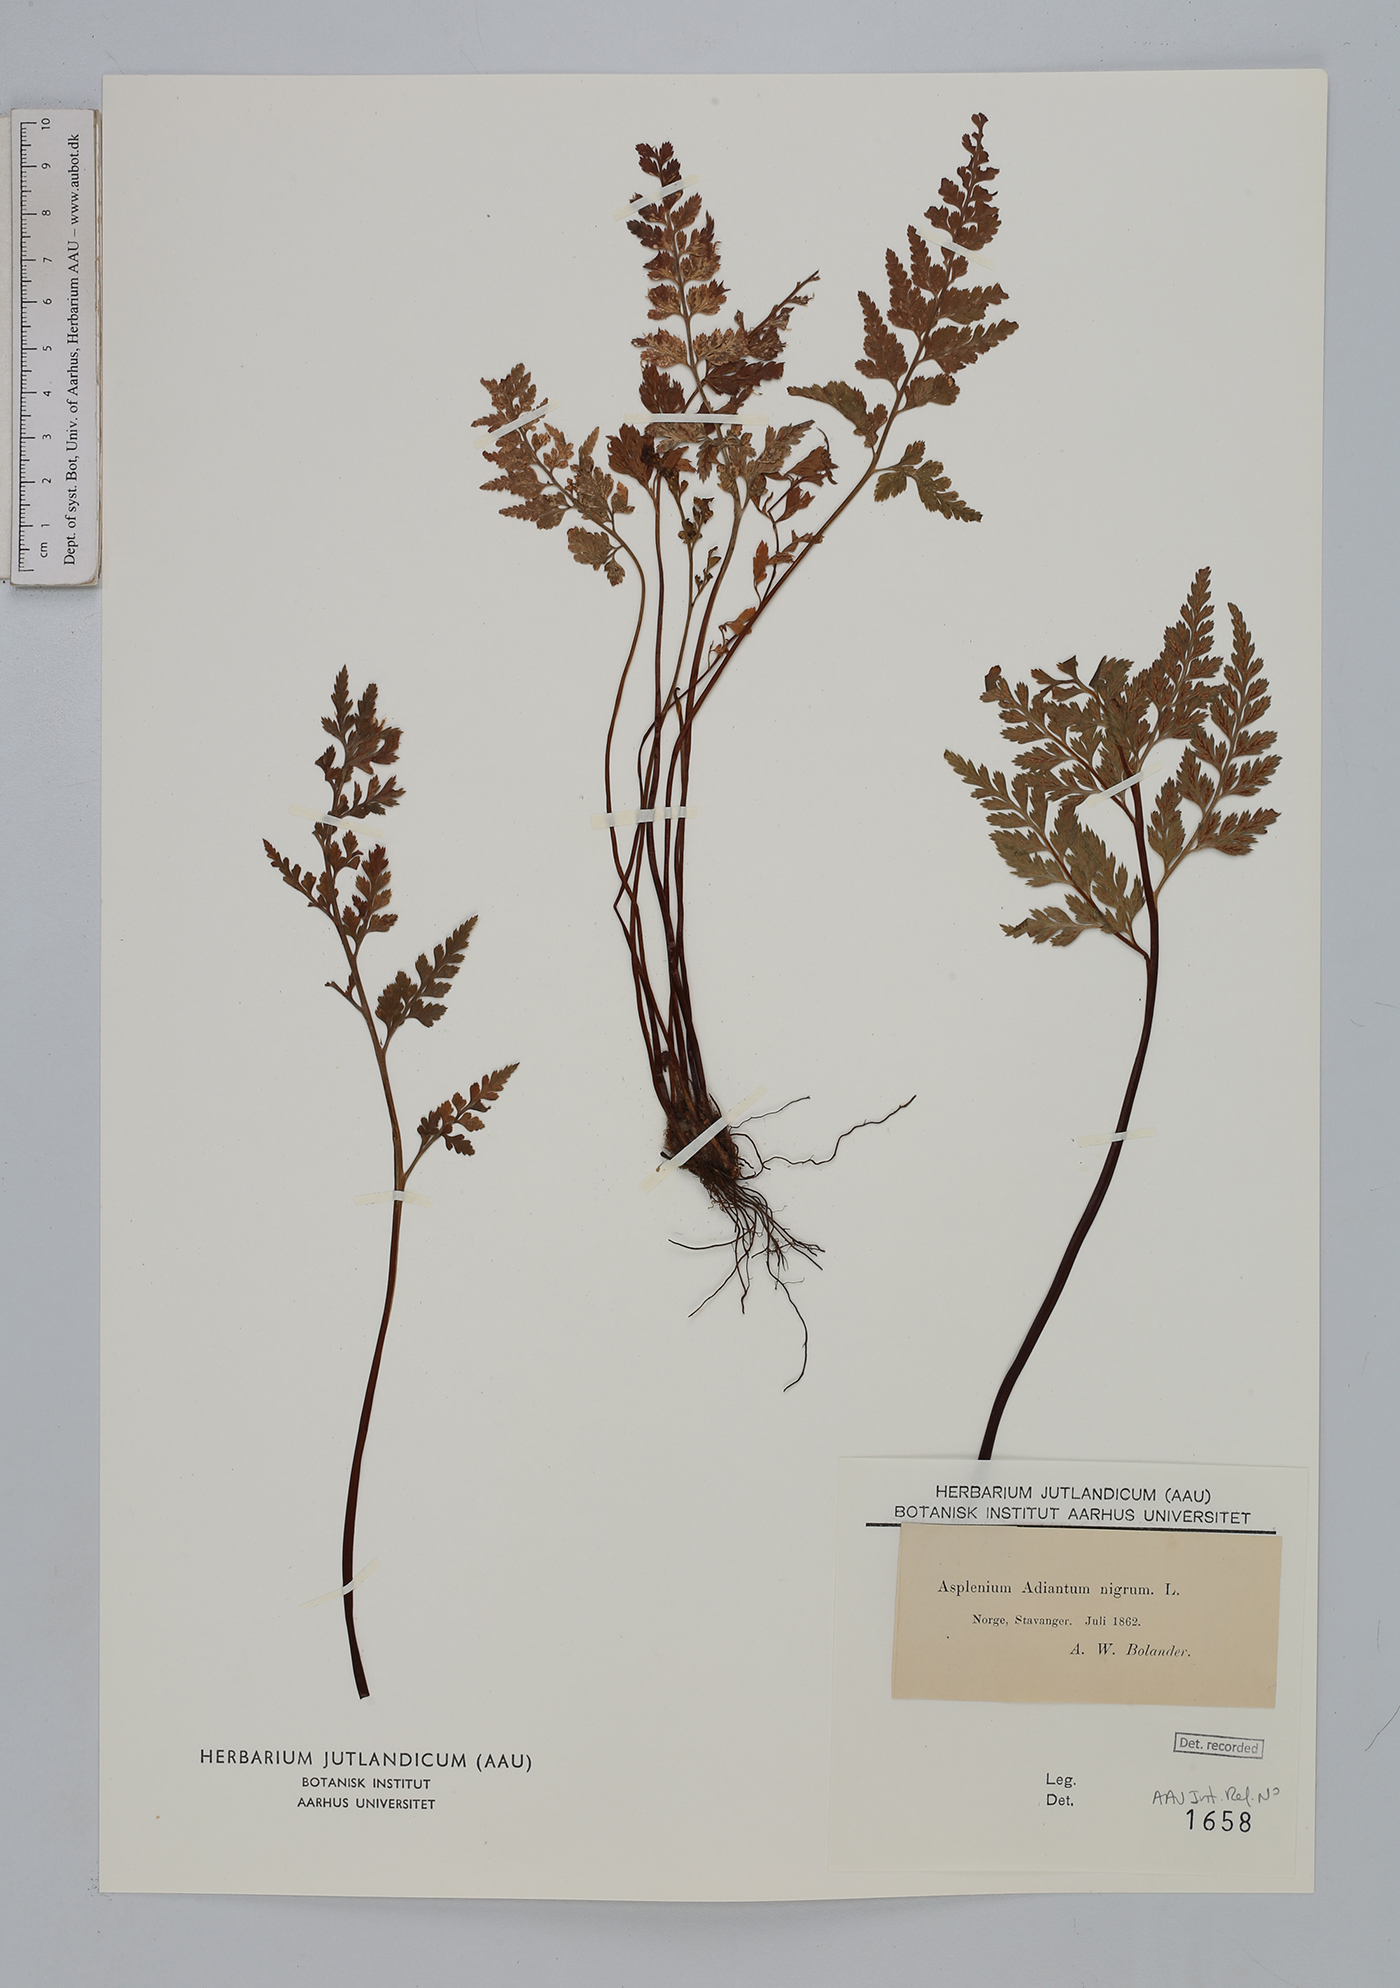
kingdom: Plantae
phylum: Tracheophyta
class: Polypodiopsida
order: Polypodiales
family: Aspleniaceae
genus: Asplenium
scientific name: Asplenium adiantum-nigrum
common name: Black spleenwort
